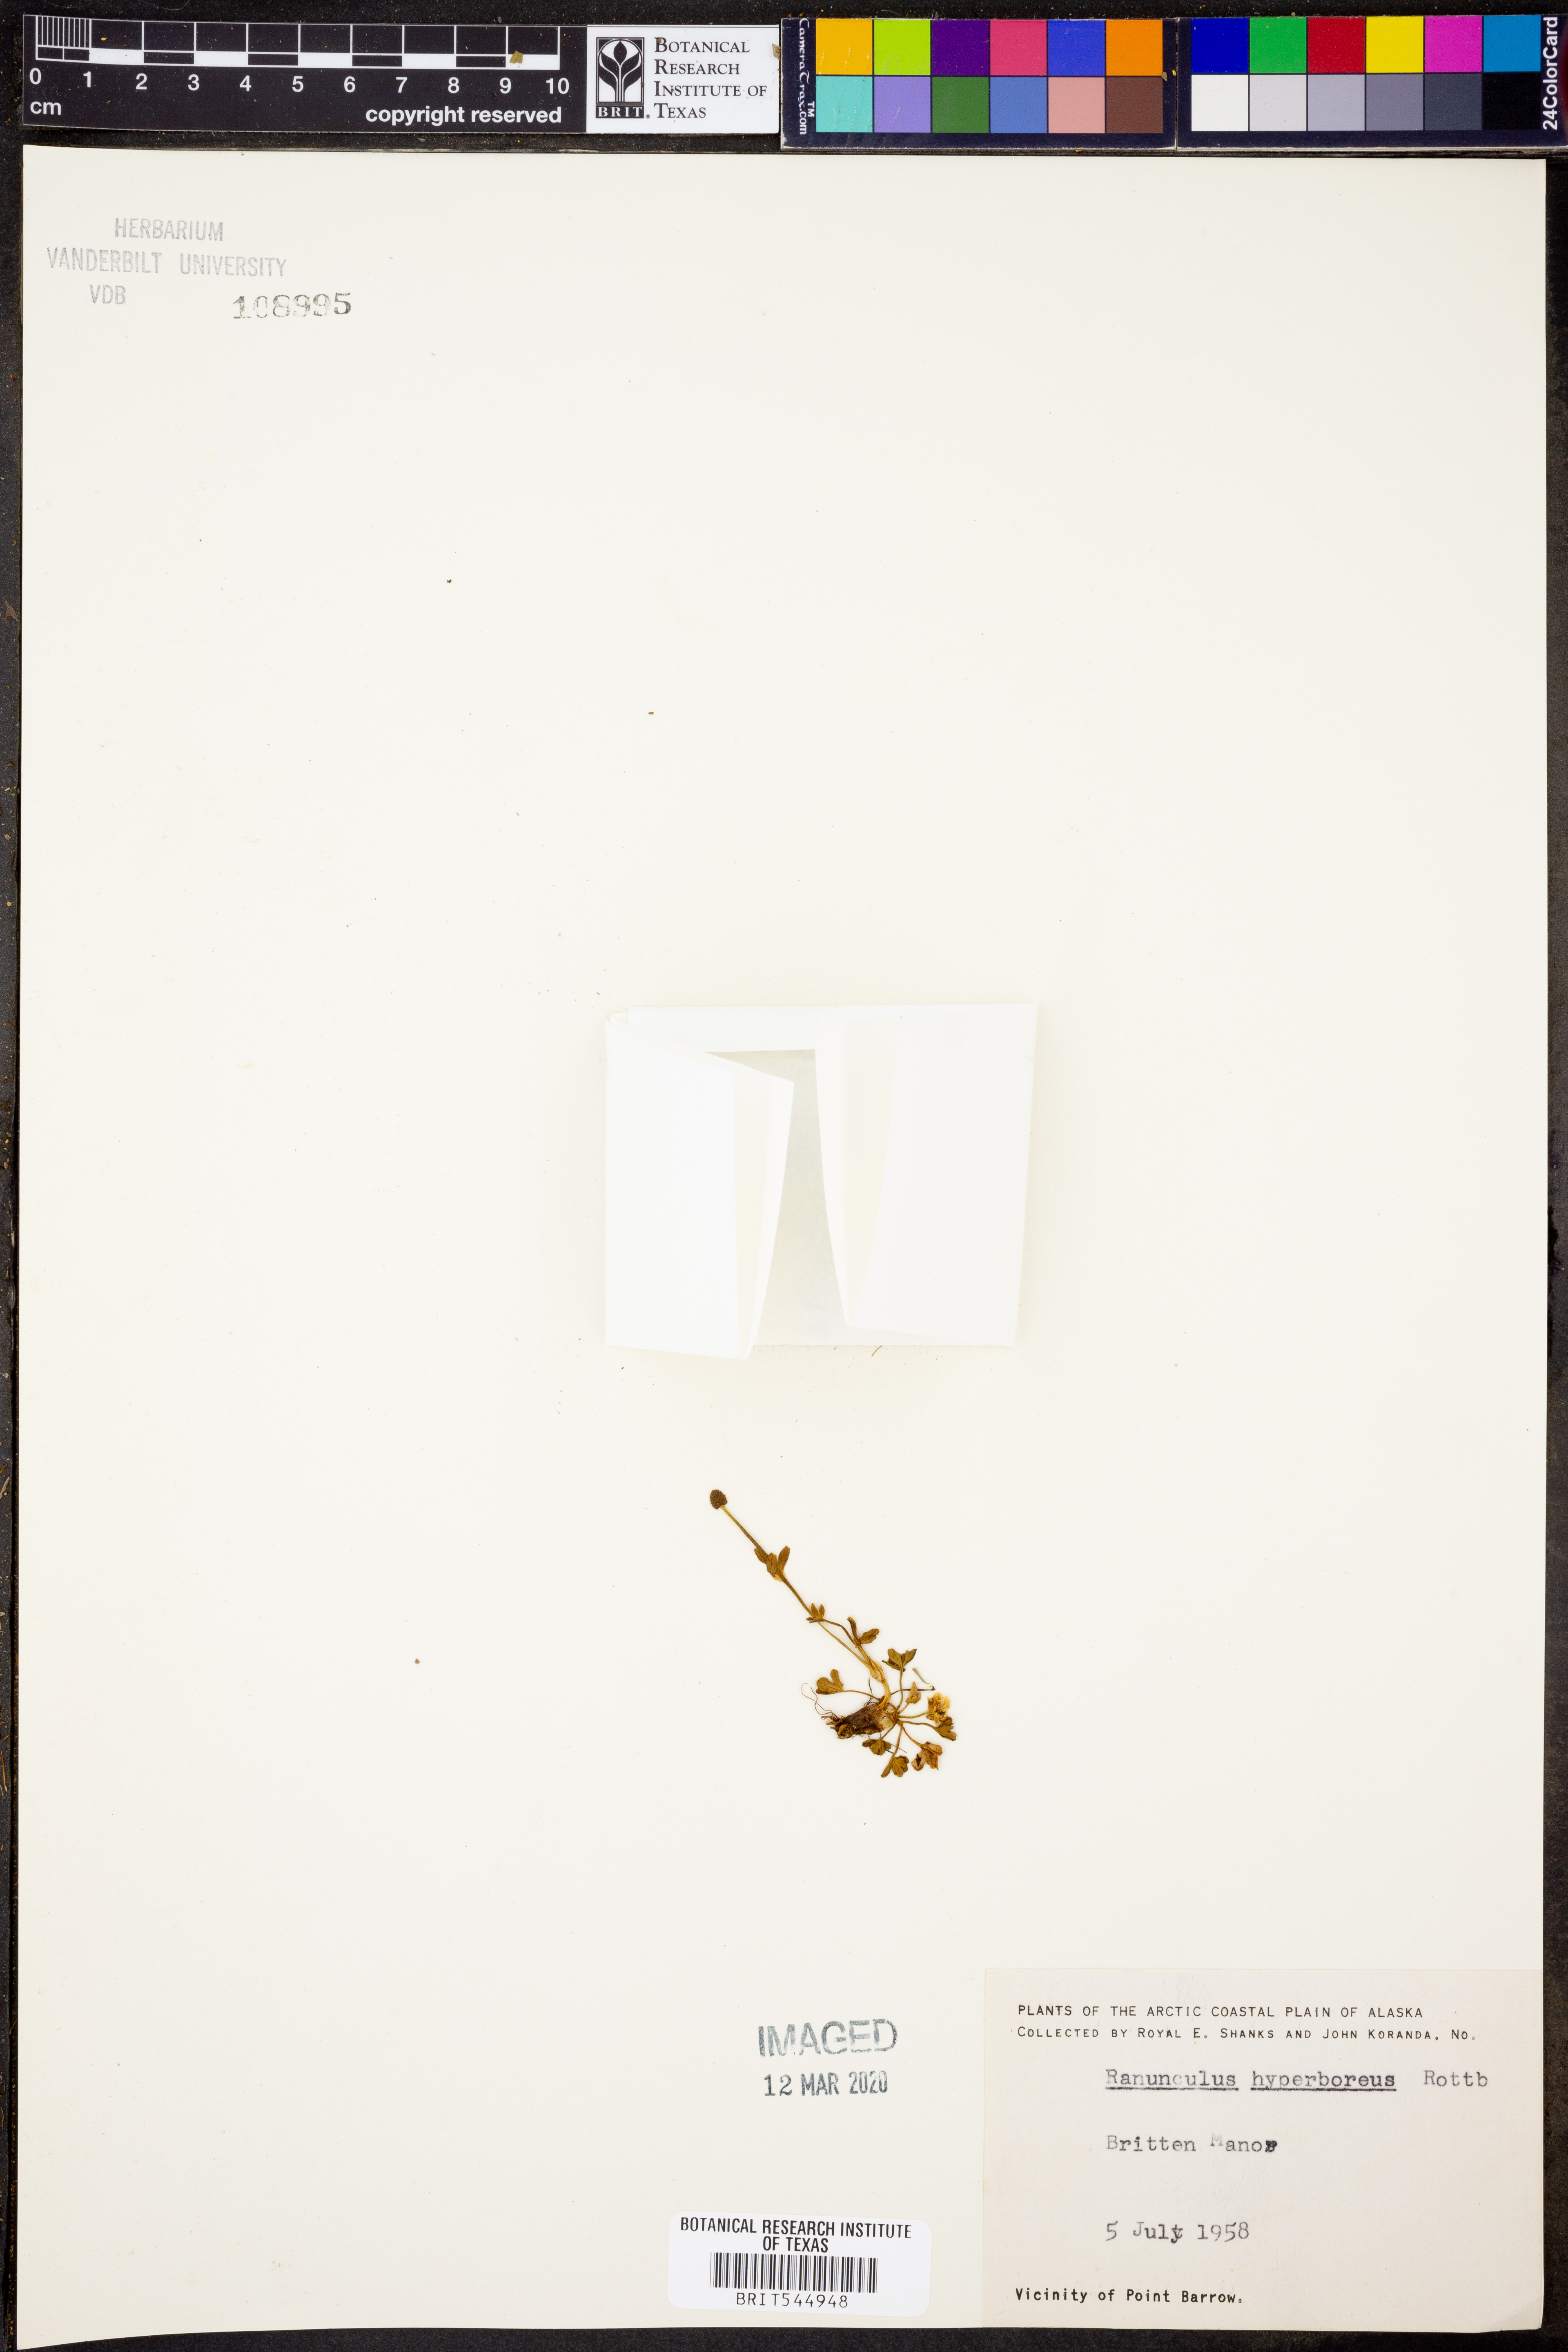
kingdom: Plantae
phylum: Tracheophyta
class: Magnoliopsida
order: Ranunculales
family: Ranunculaceae
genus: Ranunculus
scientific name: Ranunculus hyperboreus
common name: Arctic buttercup
